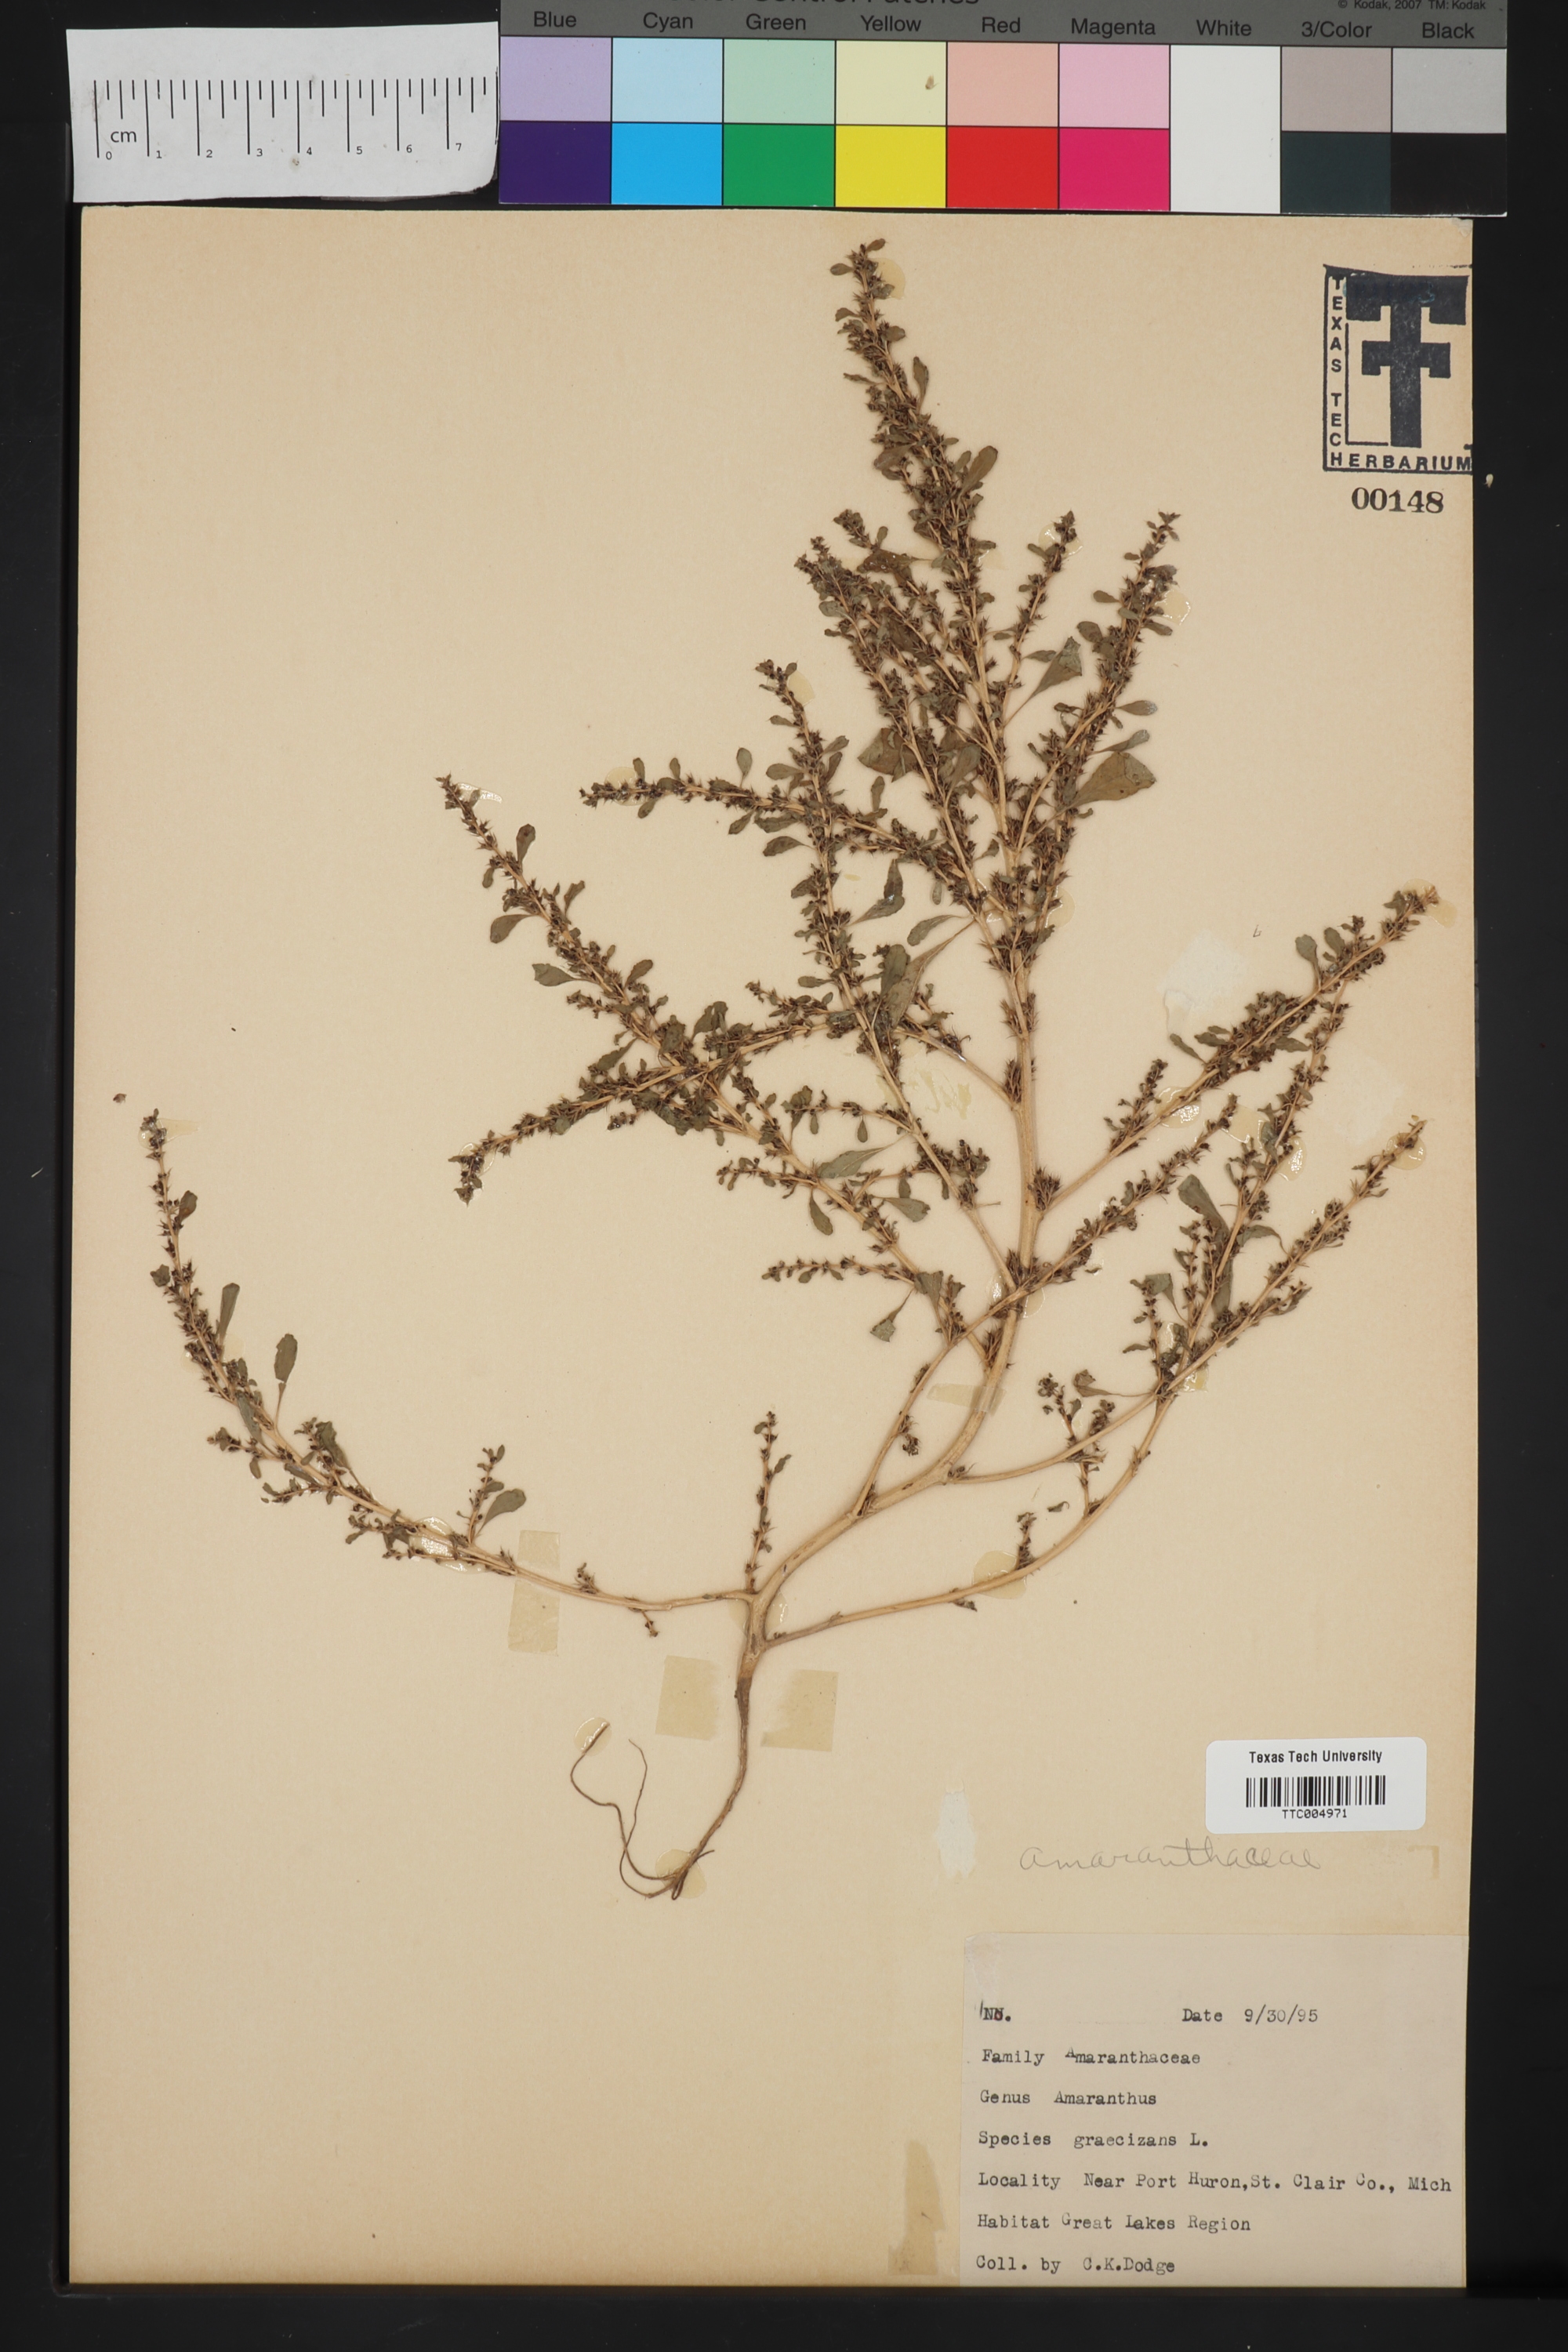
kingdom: Plantae
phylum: Tracheophyta
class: Magnoliopsida
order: Caryophyllales
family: Amaranthaceae
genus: Amaranthus
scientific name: Amaranthus graecizans
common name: Mediterranean amaranth
